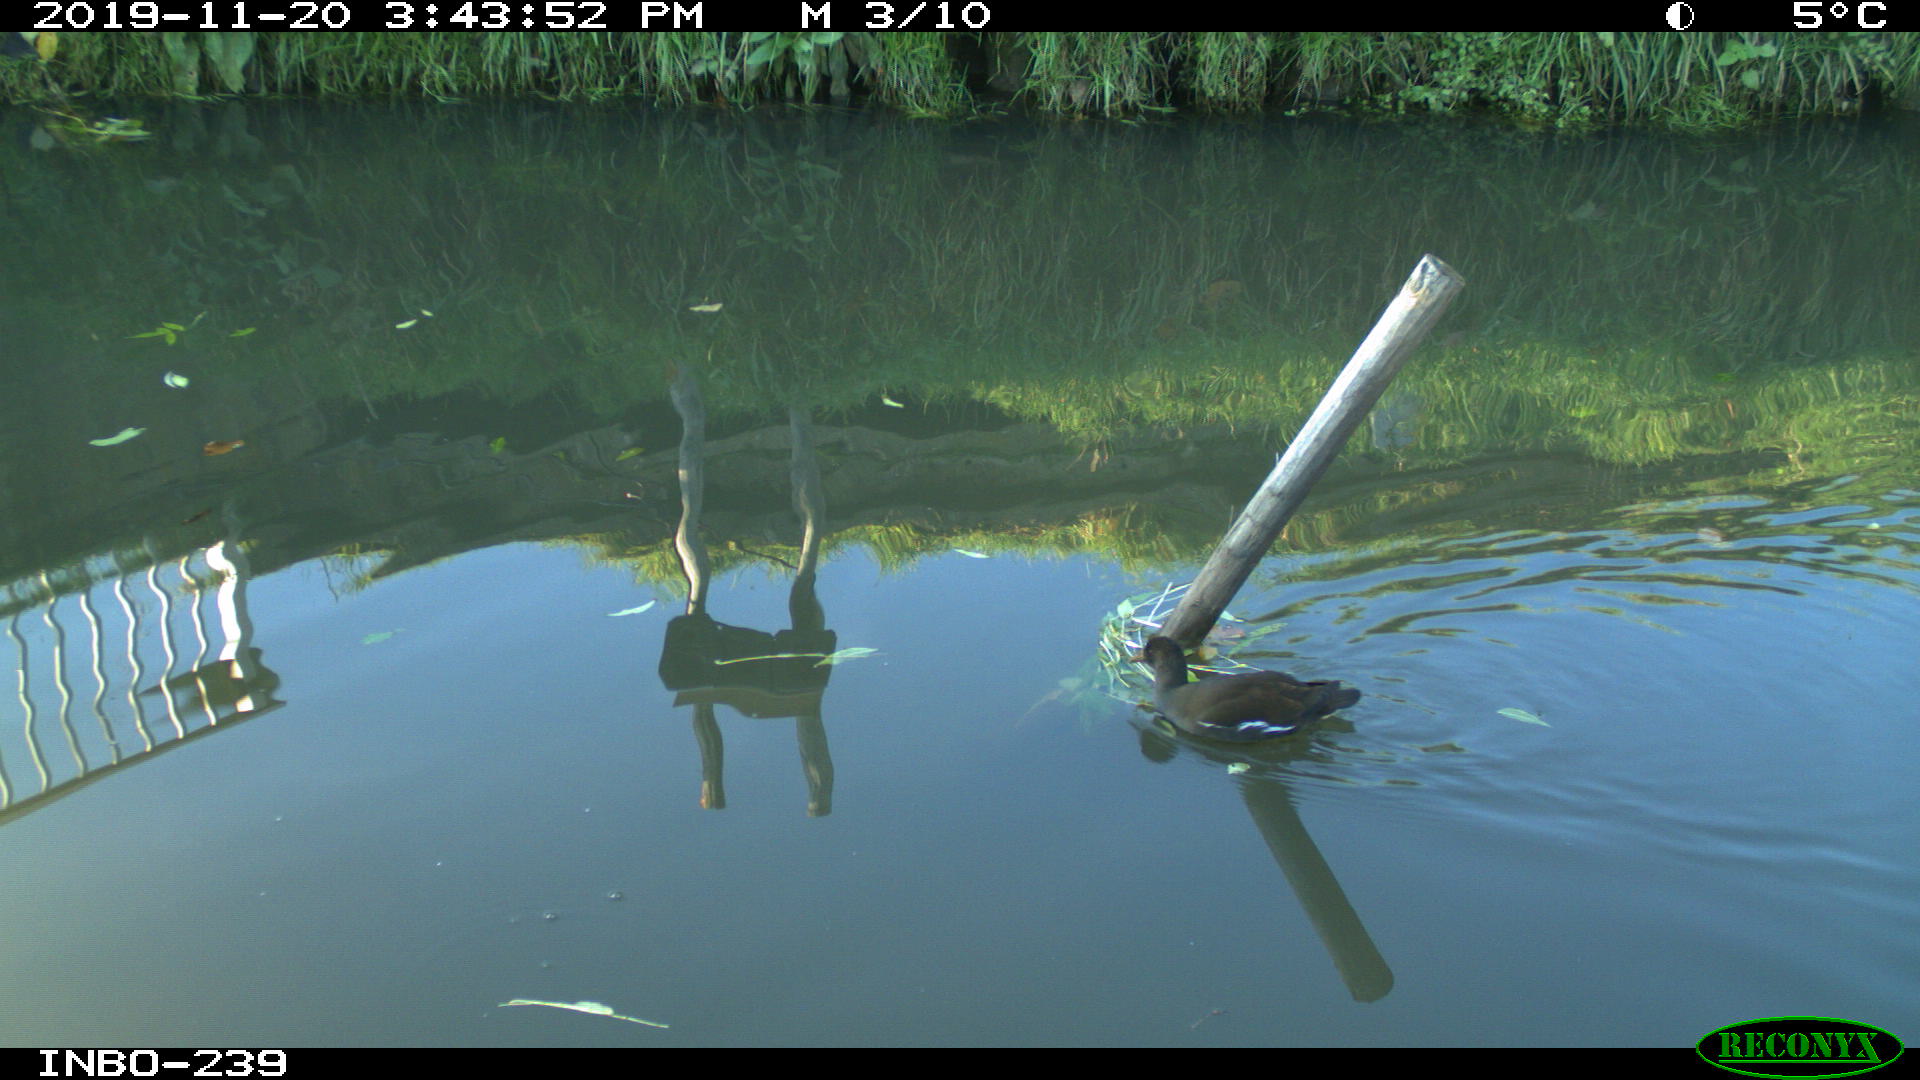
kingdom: Animalia
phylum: Chordata
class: Aves
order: Gruiformes
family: Rallidae
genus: Gallinula
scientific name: Gallinula chloropus
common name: Common moorhen
